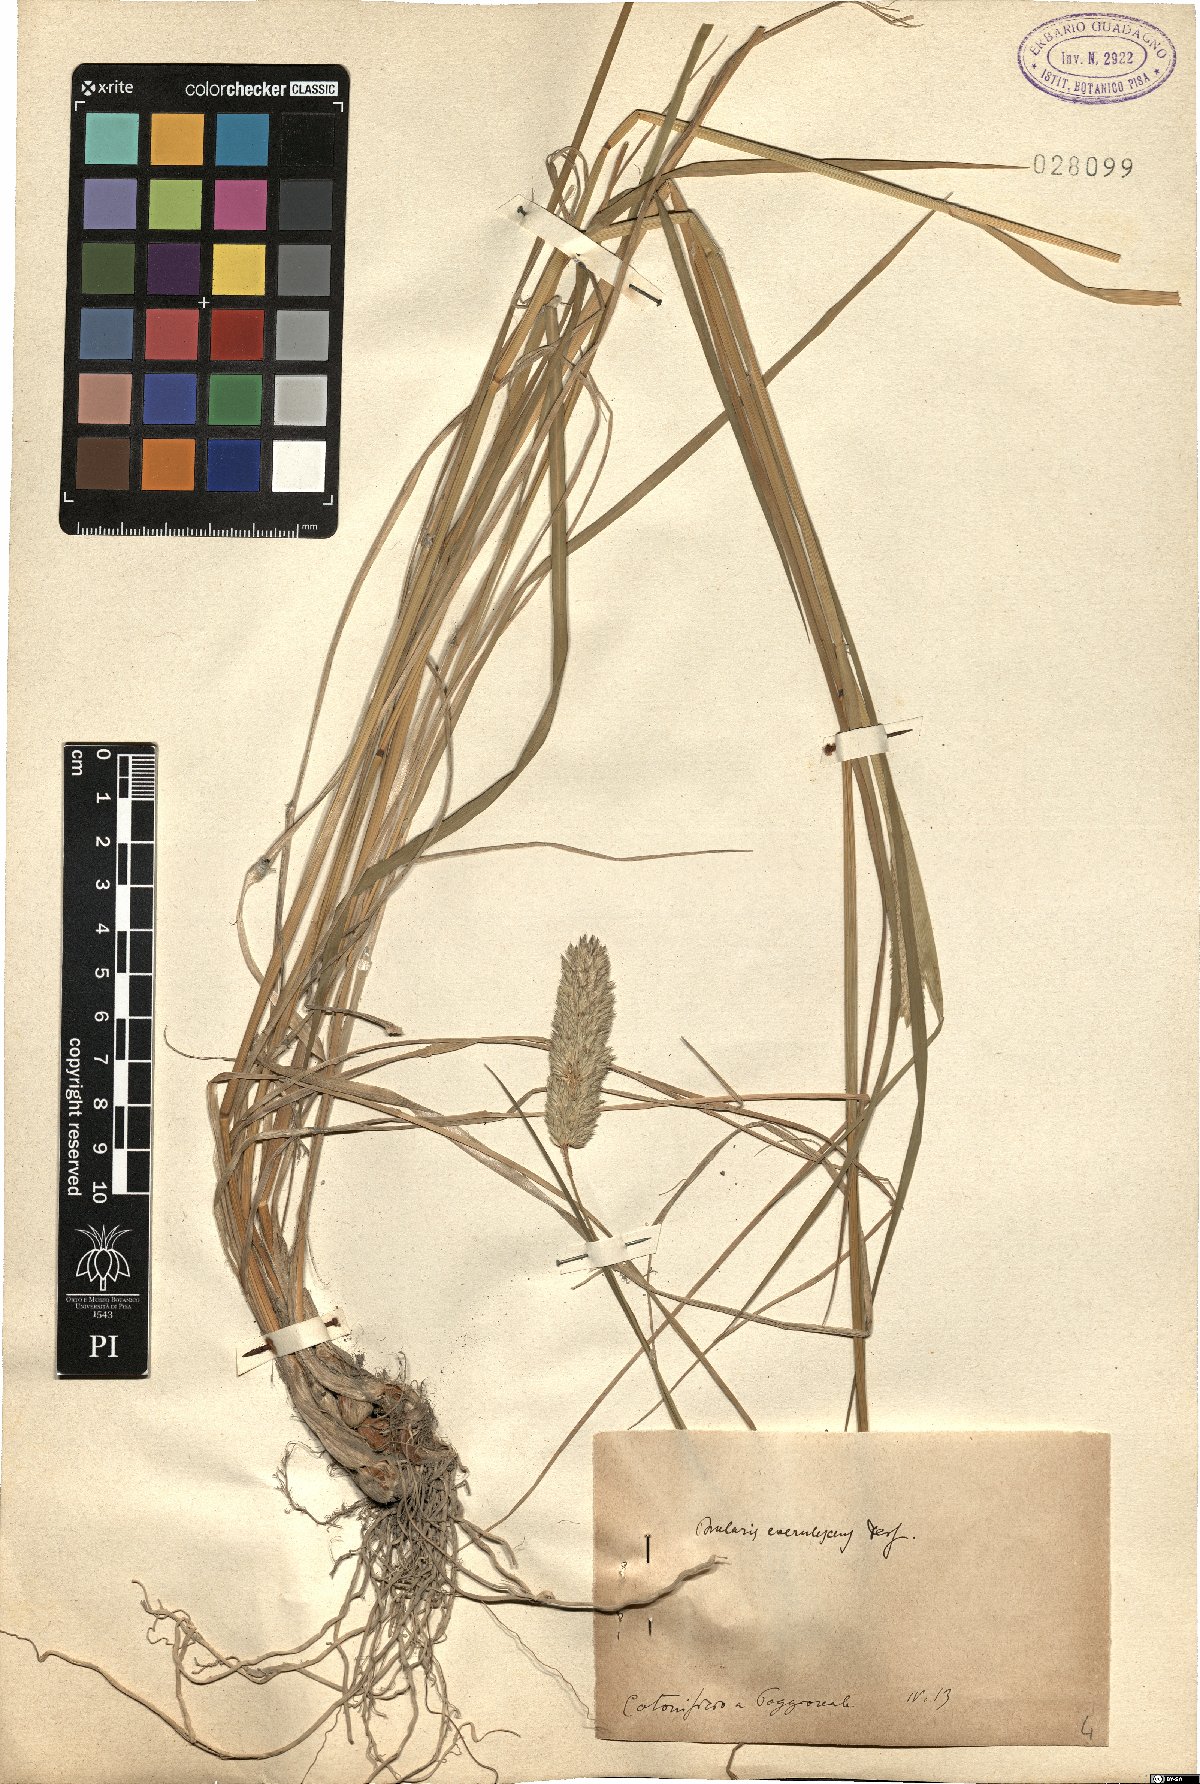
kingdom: Plantae
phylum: Tracheophyta
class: Liliopsida
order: Poales
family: Poaceae
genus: Phalaris
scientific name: Phalaris coerulescens
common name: Sunolgrass
